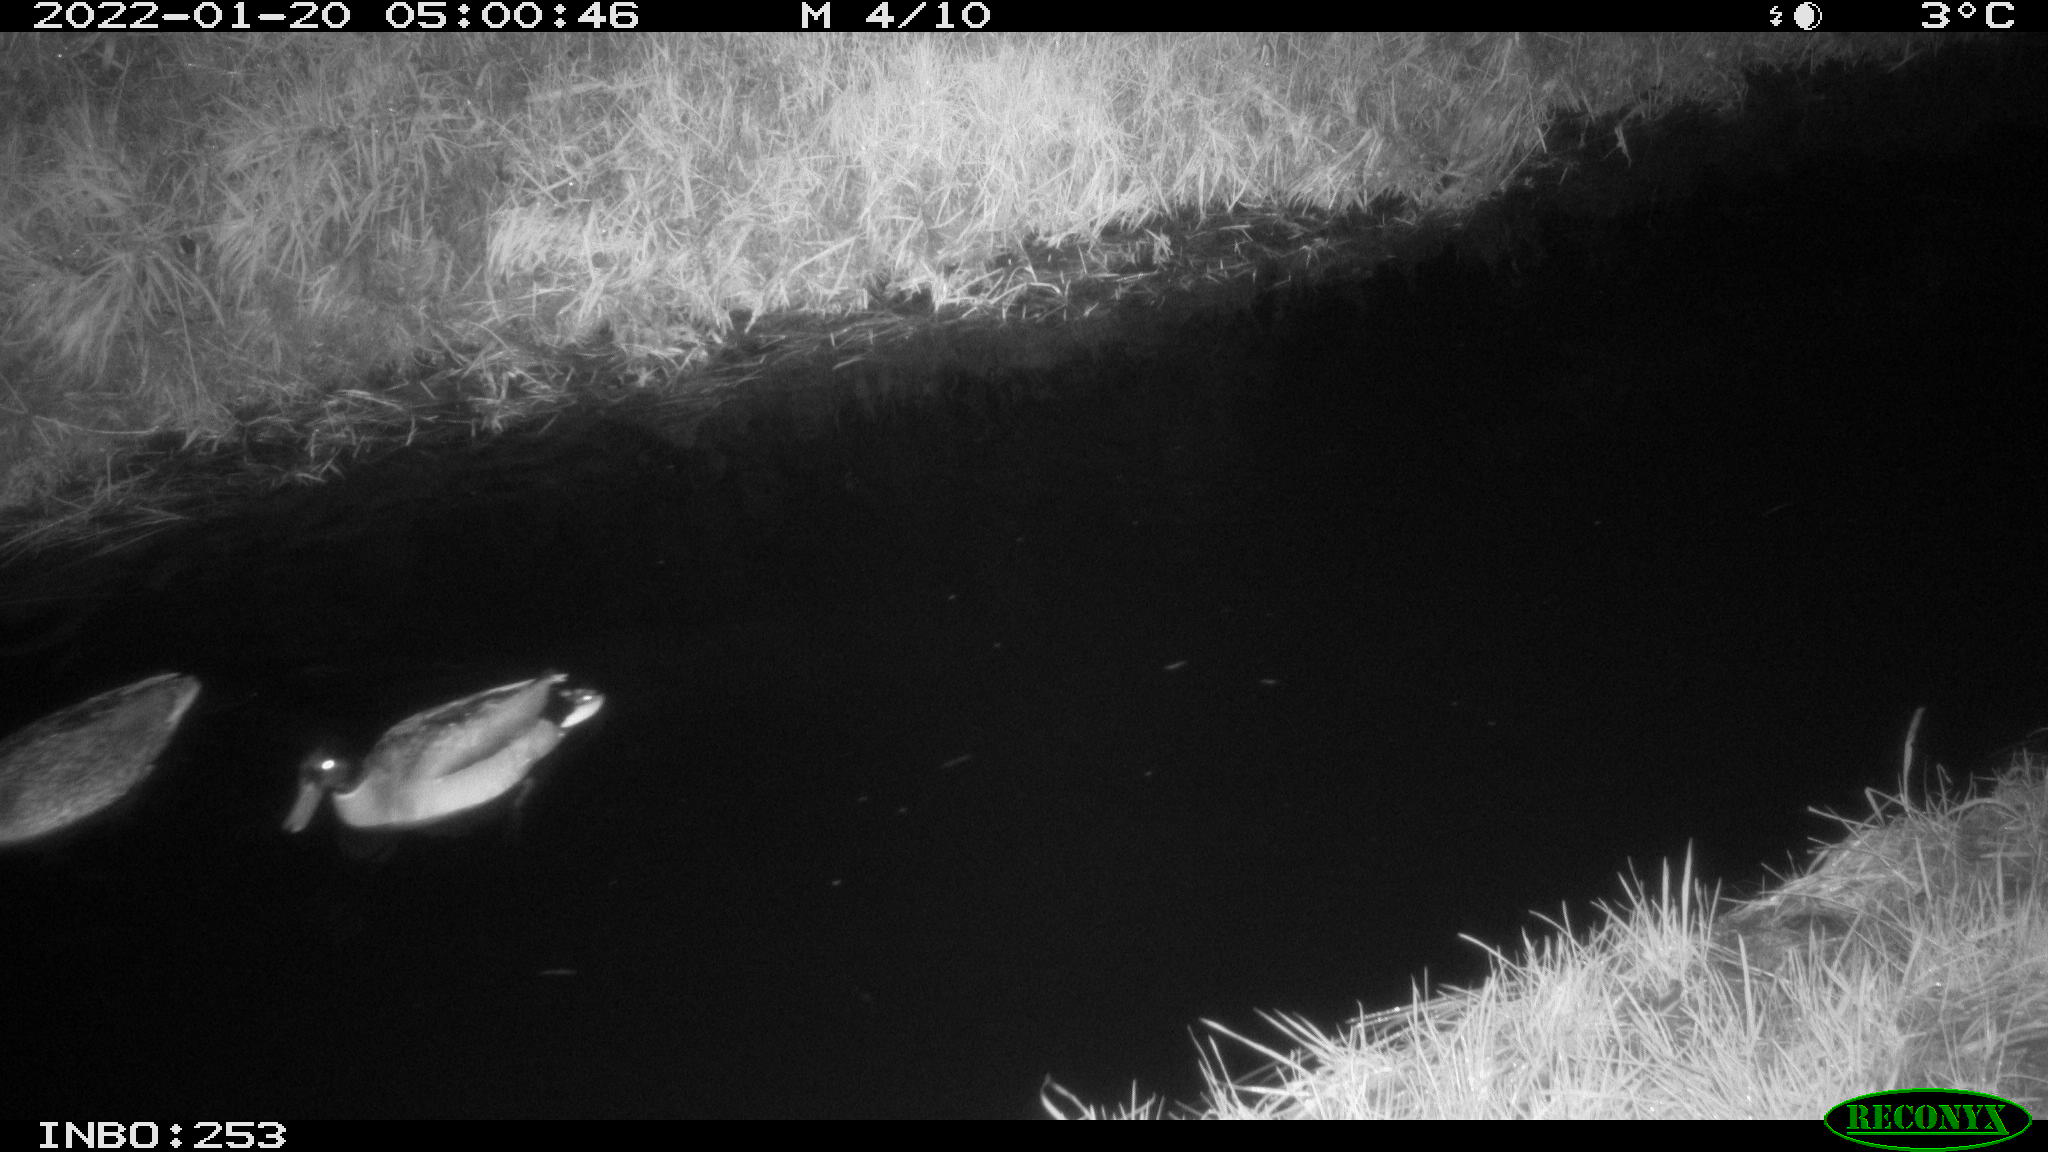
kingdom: Animalia
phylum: Chordata
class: Aves
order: Anseriformes
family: Anatidae
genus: Anas
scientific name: Anas
